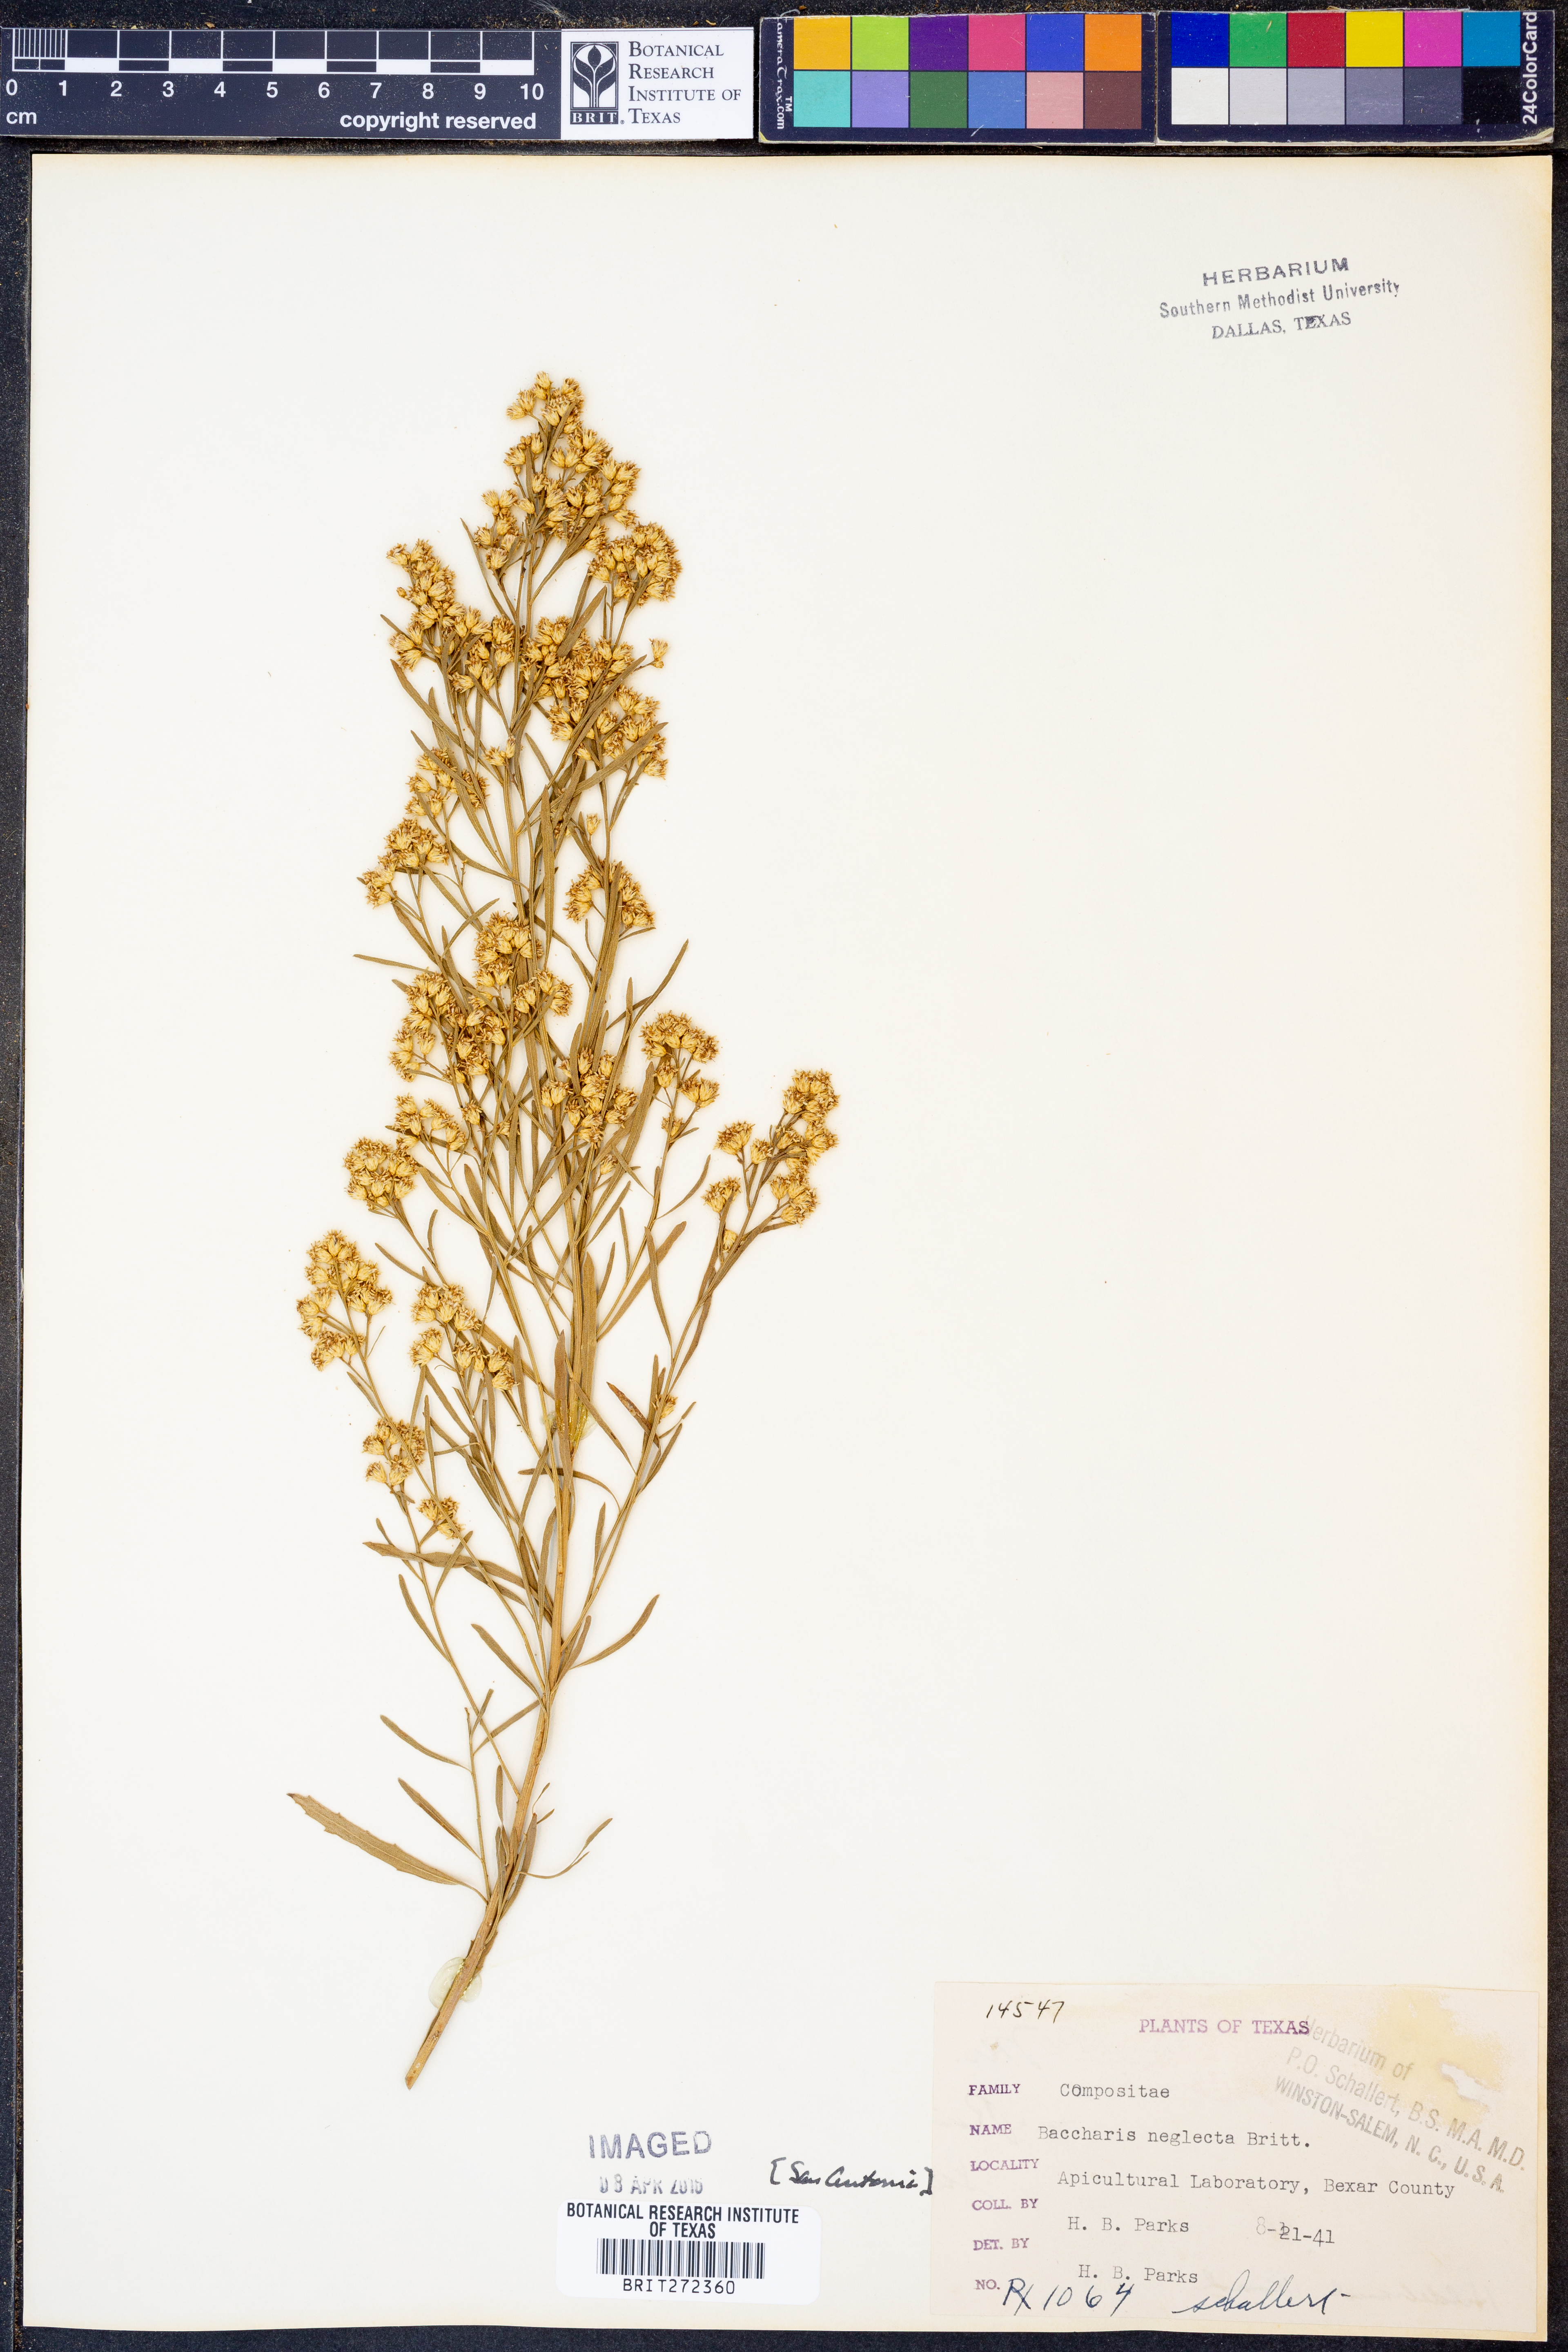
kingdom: Plantae
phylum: Tracheophyta
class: Magnoliopsida
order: Asterales
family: Asteraceae
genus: Baccharis
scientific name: Baccharis neglecta
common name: Roosevelt-weed
